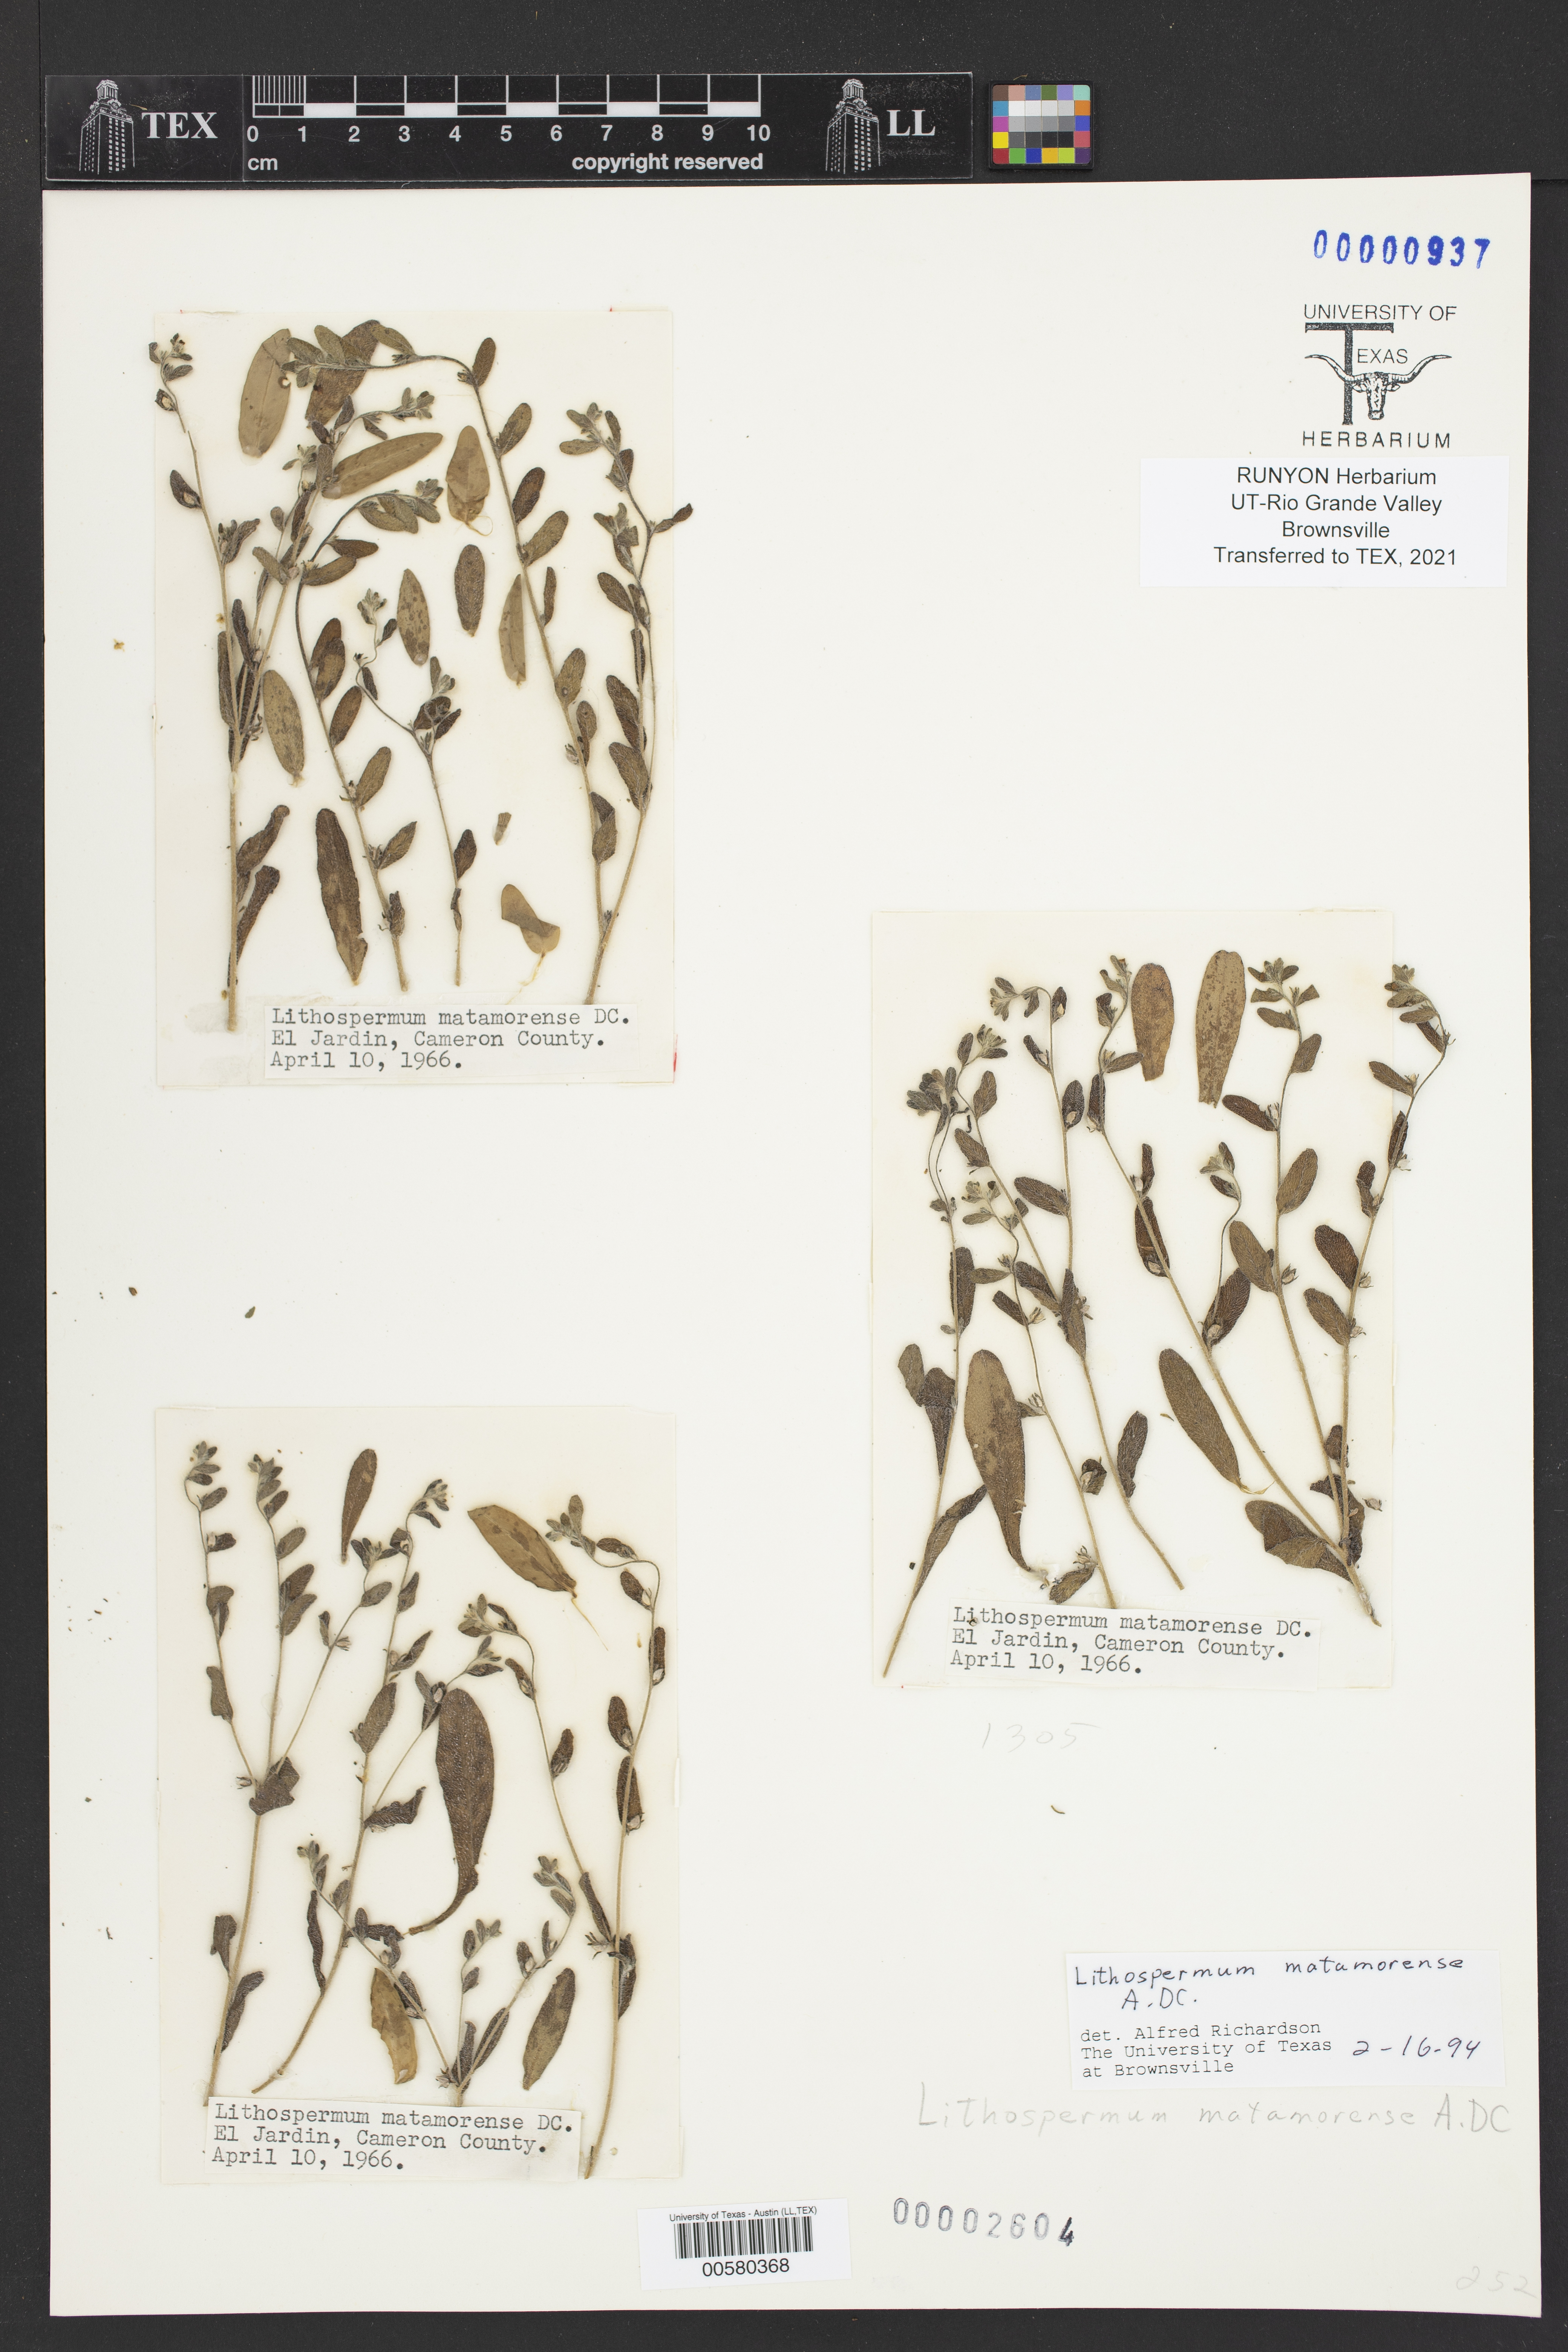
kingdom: Plantae
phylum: Tracheophyta
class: Magnoliopsida
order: Boraginales
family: Boraginaceae
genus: Lithospermum
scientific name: Lithospermum matamorense
